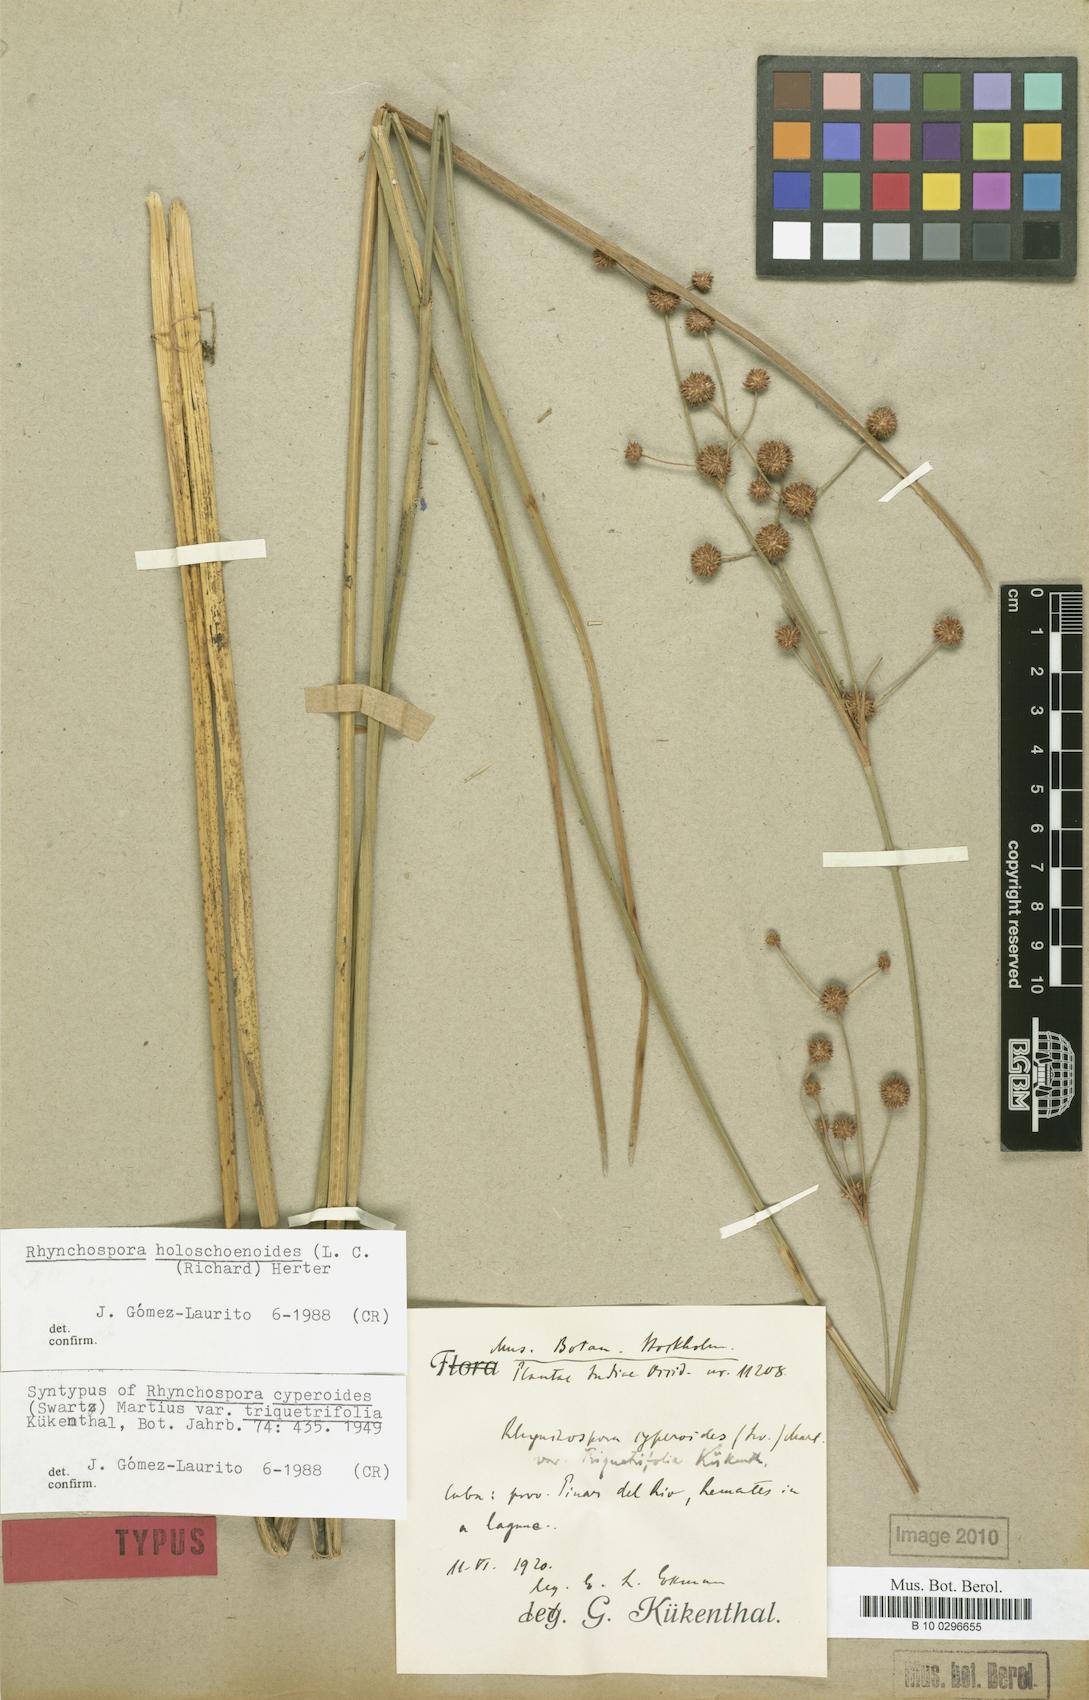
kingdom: Plantae
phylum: Tracheophyta
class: Liliopsida
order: Poales
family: Cyperaceae
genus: Rhynchospora
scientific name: Rhynchospora holoschoenoides
